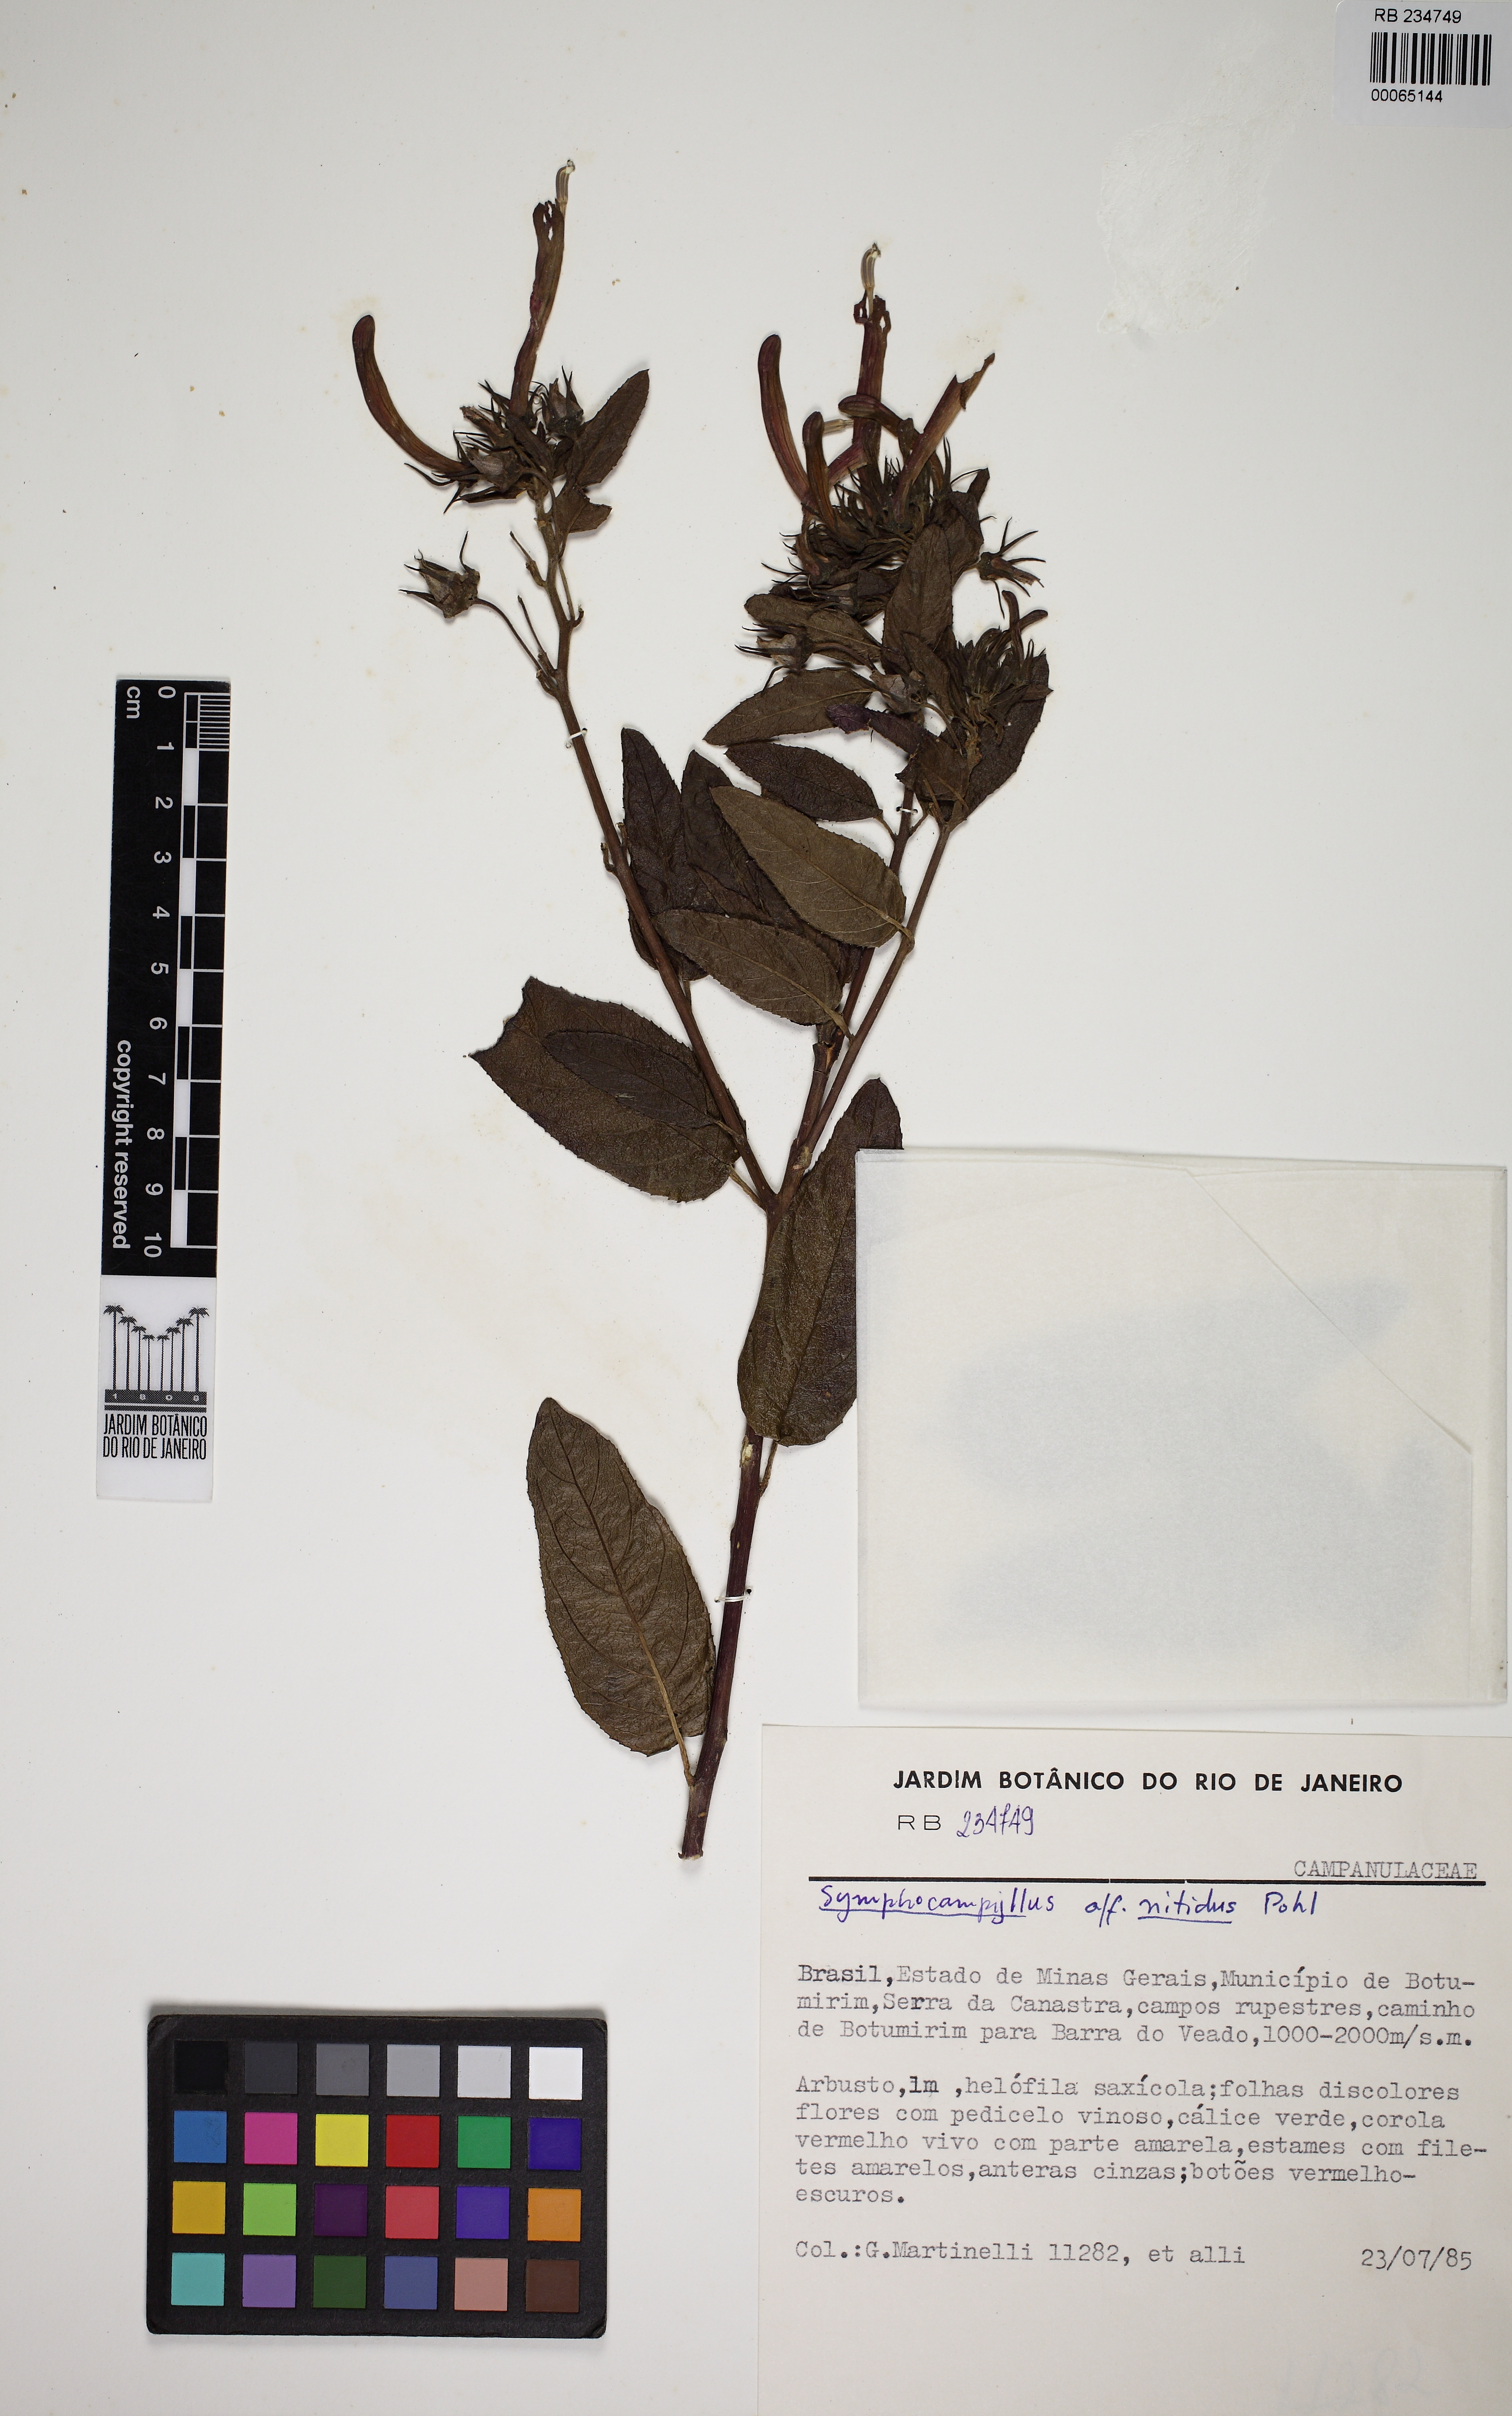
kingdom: Plantae
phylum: Tracheophyta
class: Magnoliopsida
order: Asterales
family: Campanulaceae
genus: Siphocampylus
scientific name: Siphocampylus nitidus
